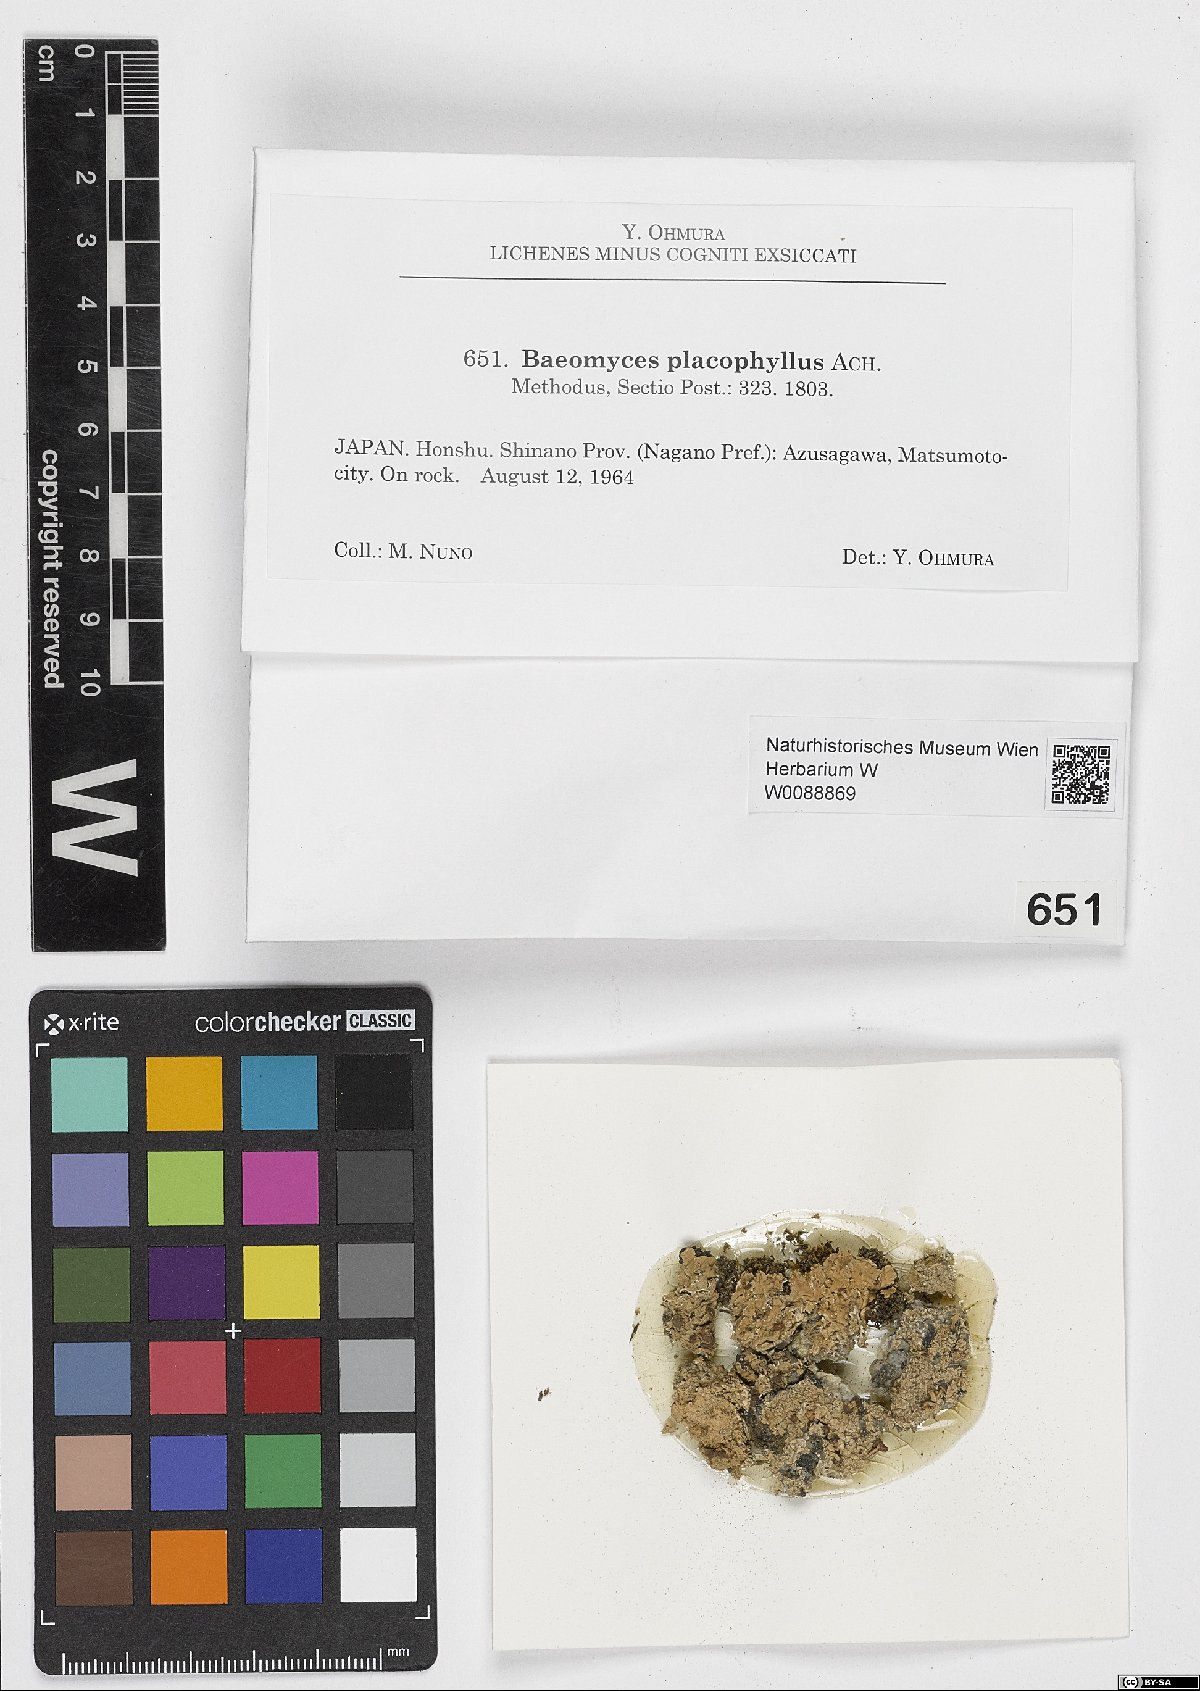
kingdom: Fungi
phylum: Ascomycota
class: Lecanoromycetes
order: Baeomycetales
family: Baeomycetaceae
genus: Baeomyces
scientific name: Baeomyces placophyllus
